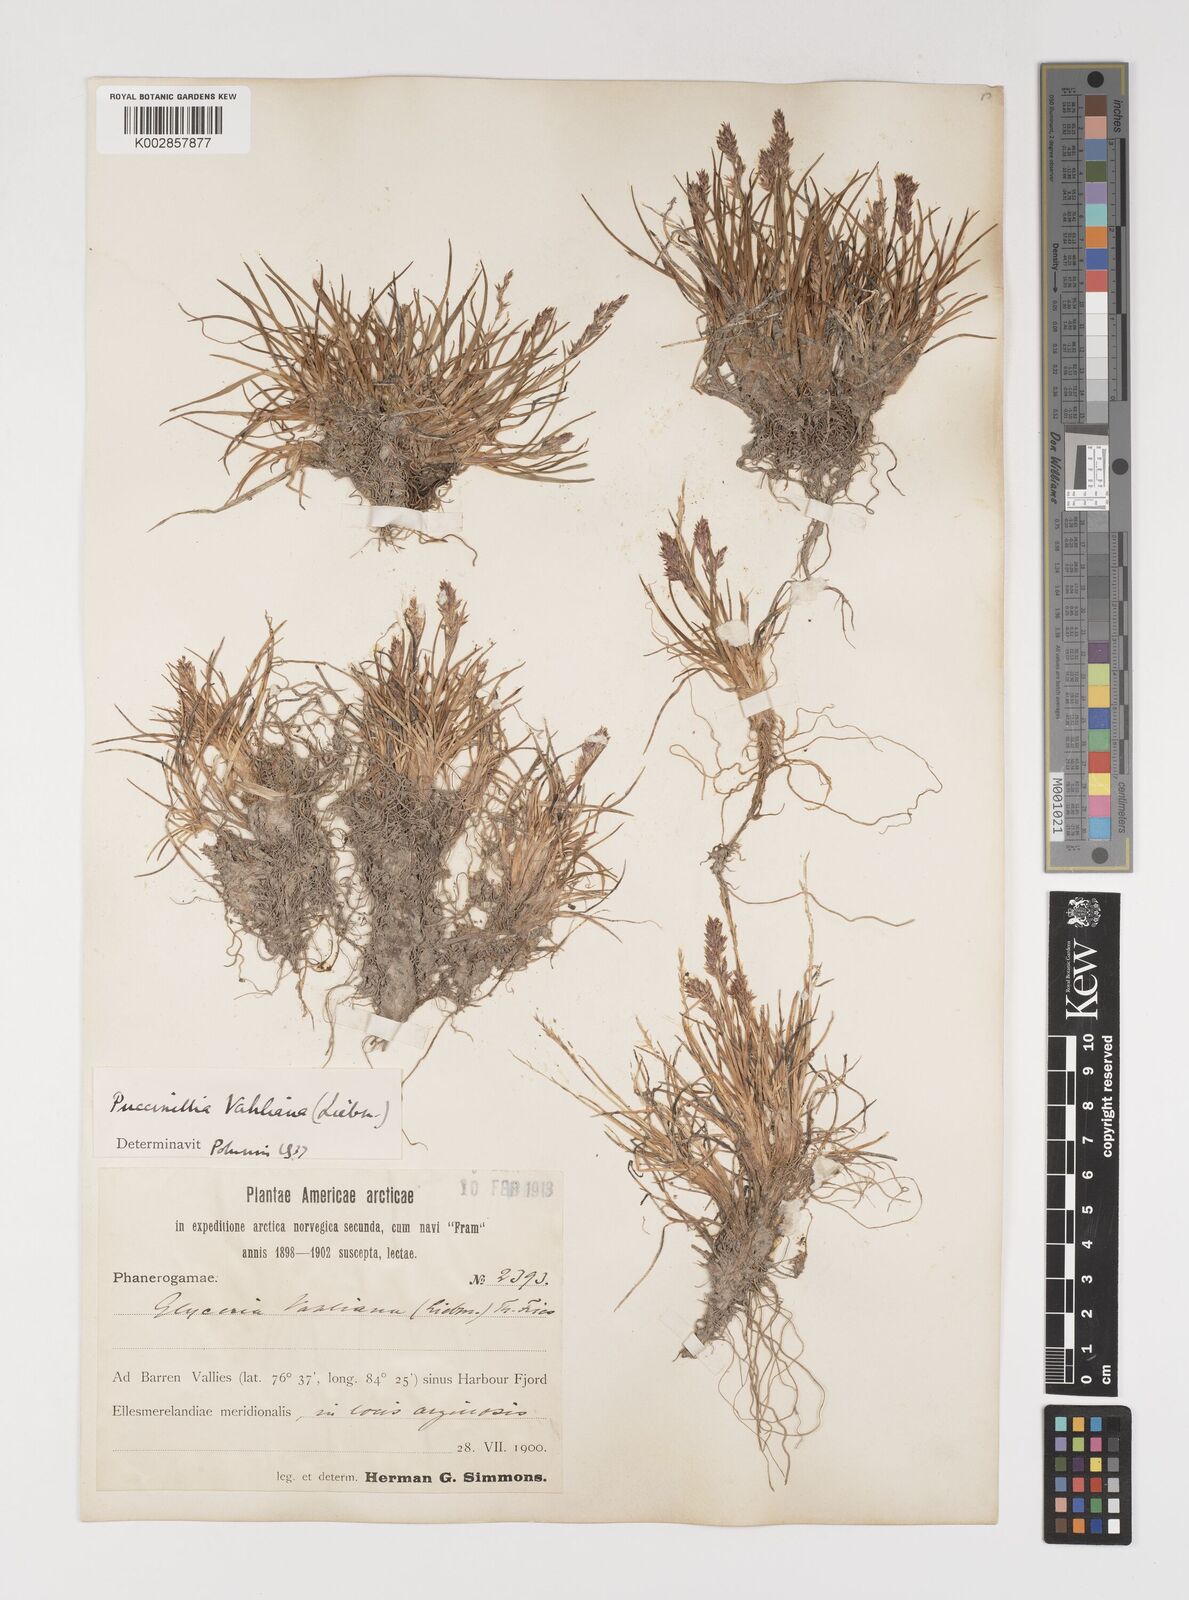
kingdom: Plantae
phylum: Tracheophyta
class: Liliopsida
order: Poales
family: Poaceae
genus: Puccinellia
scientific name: Puccinellia vahliana
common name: Vahl's alkaligrass
